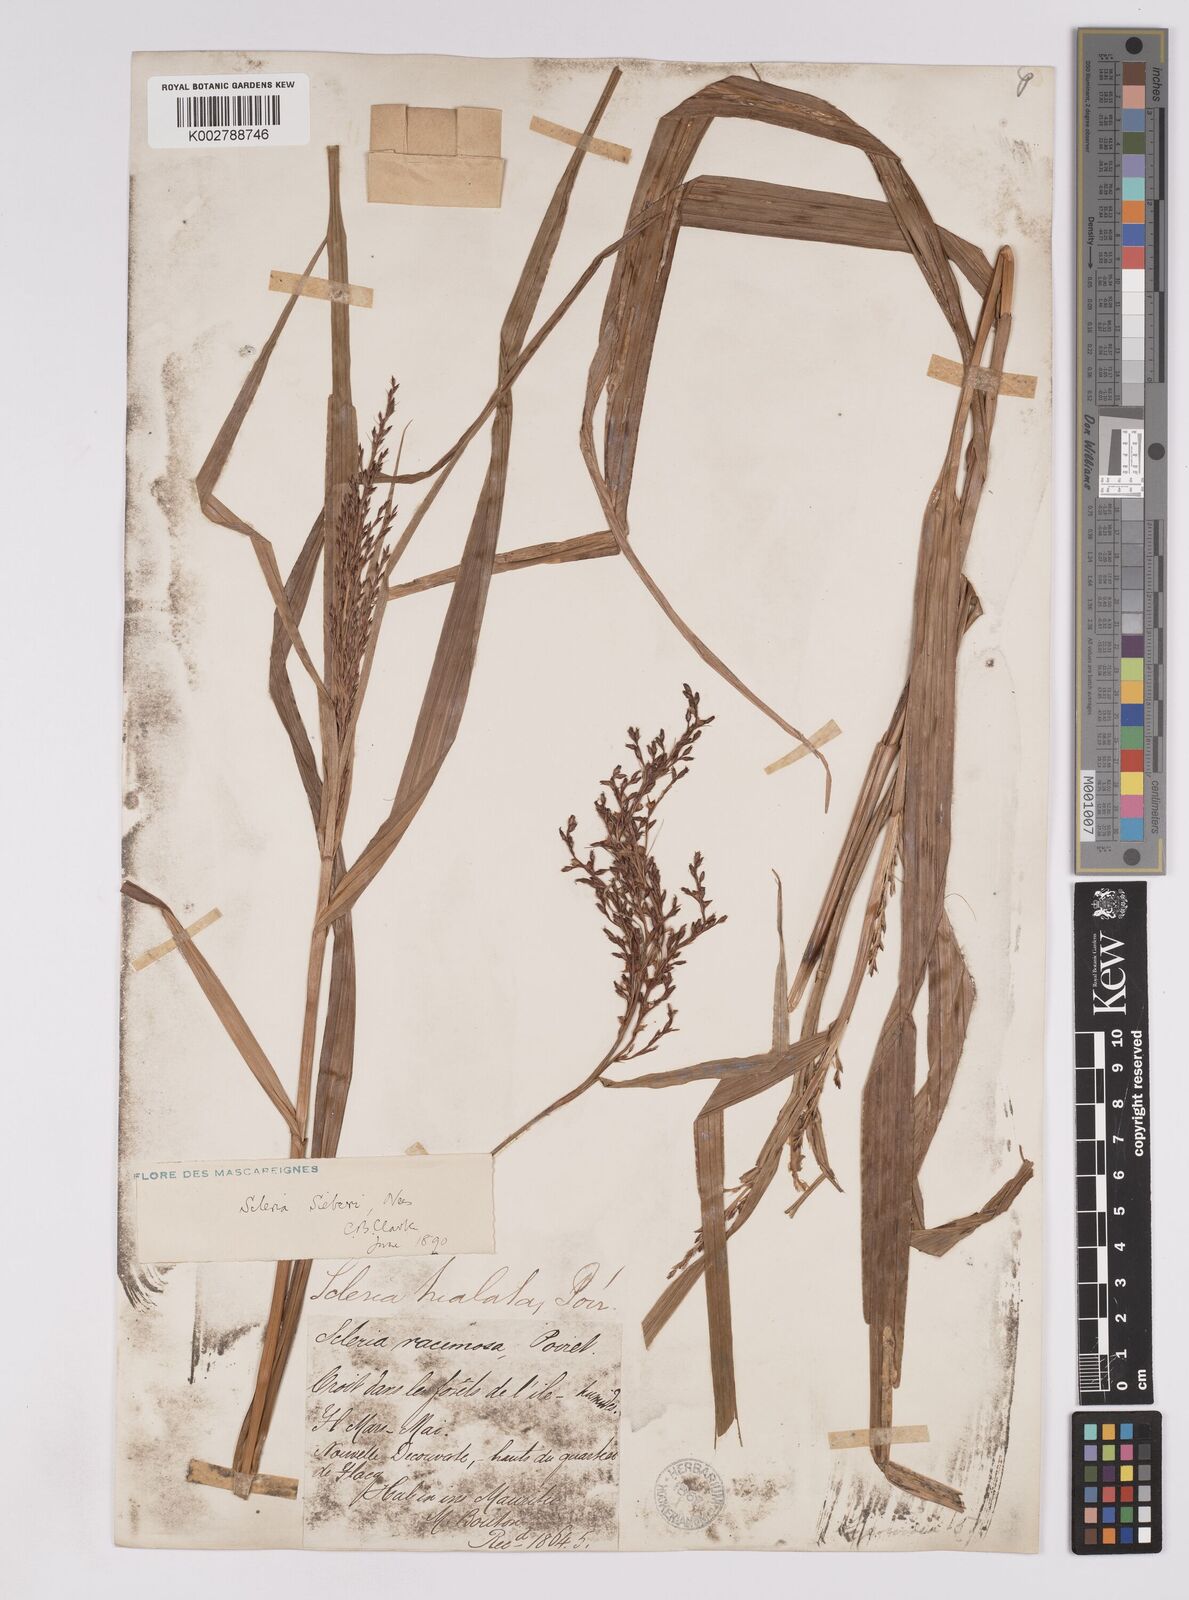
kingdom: Plantae
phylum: Tracheophyta
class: Liliopsida
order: Poales
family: Cyperaceae
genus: Scleria
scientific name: Scleria gaertneri
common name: Cortadera blanca
